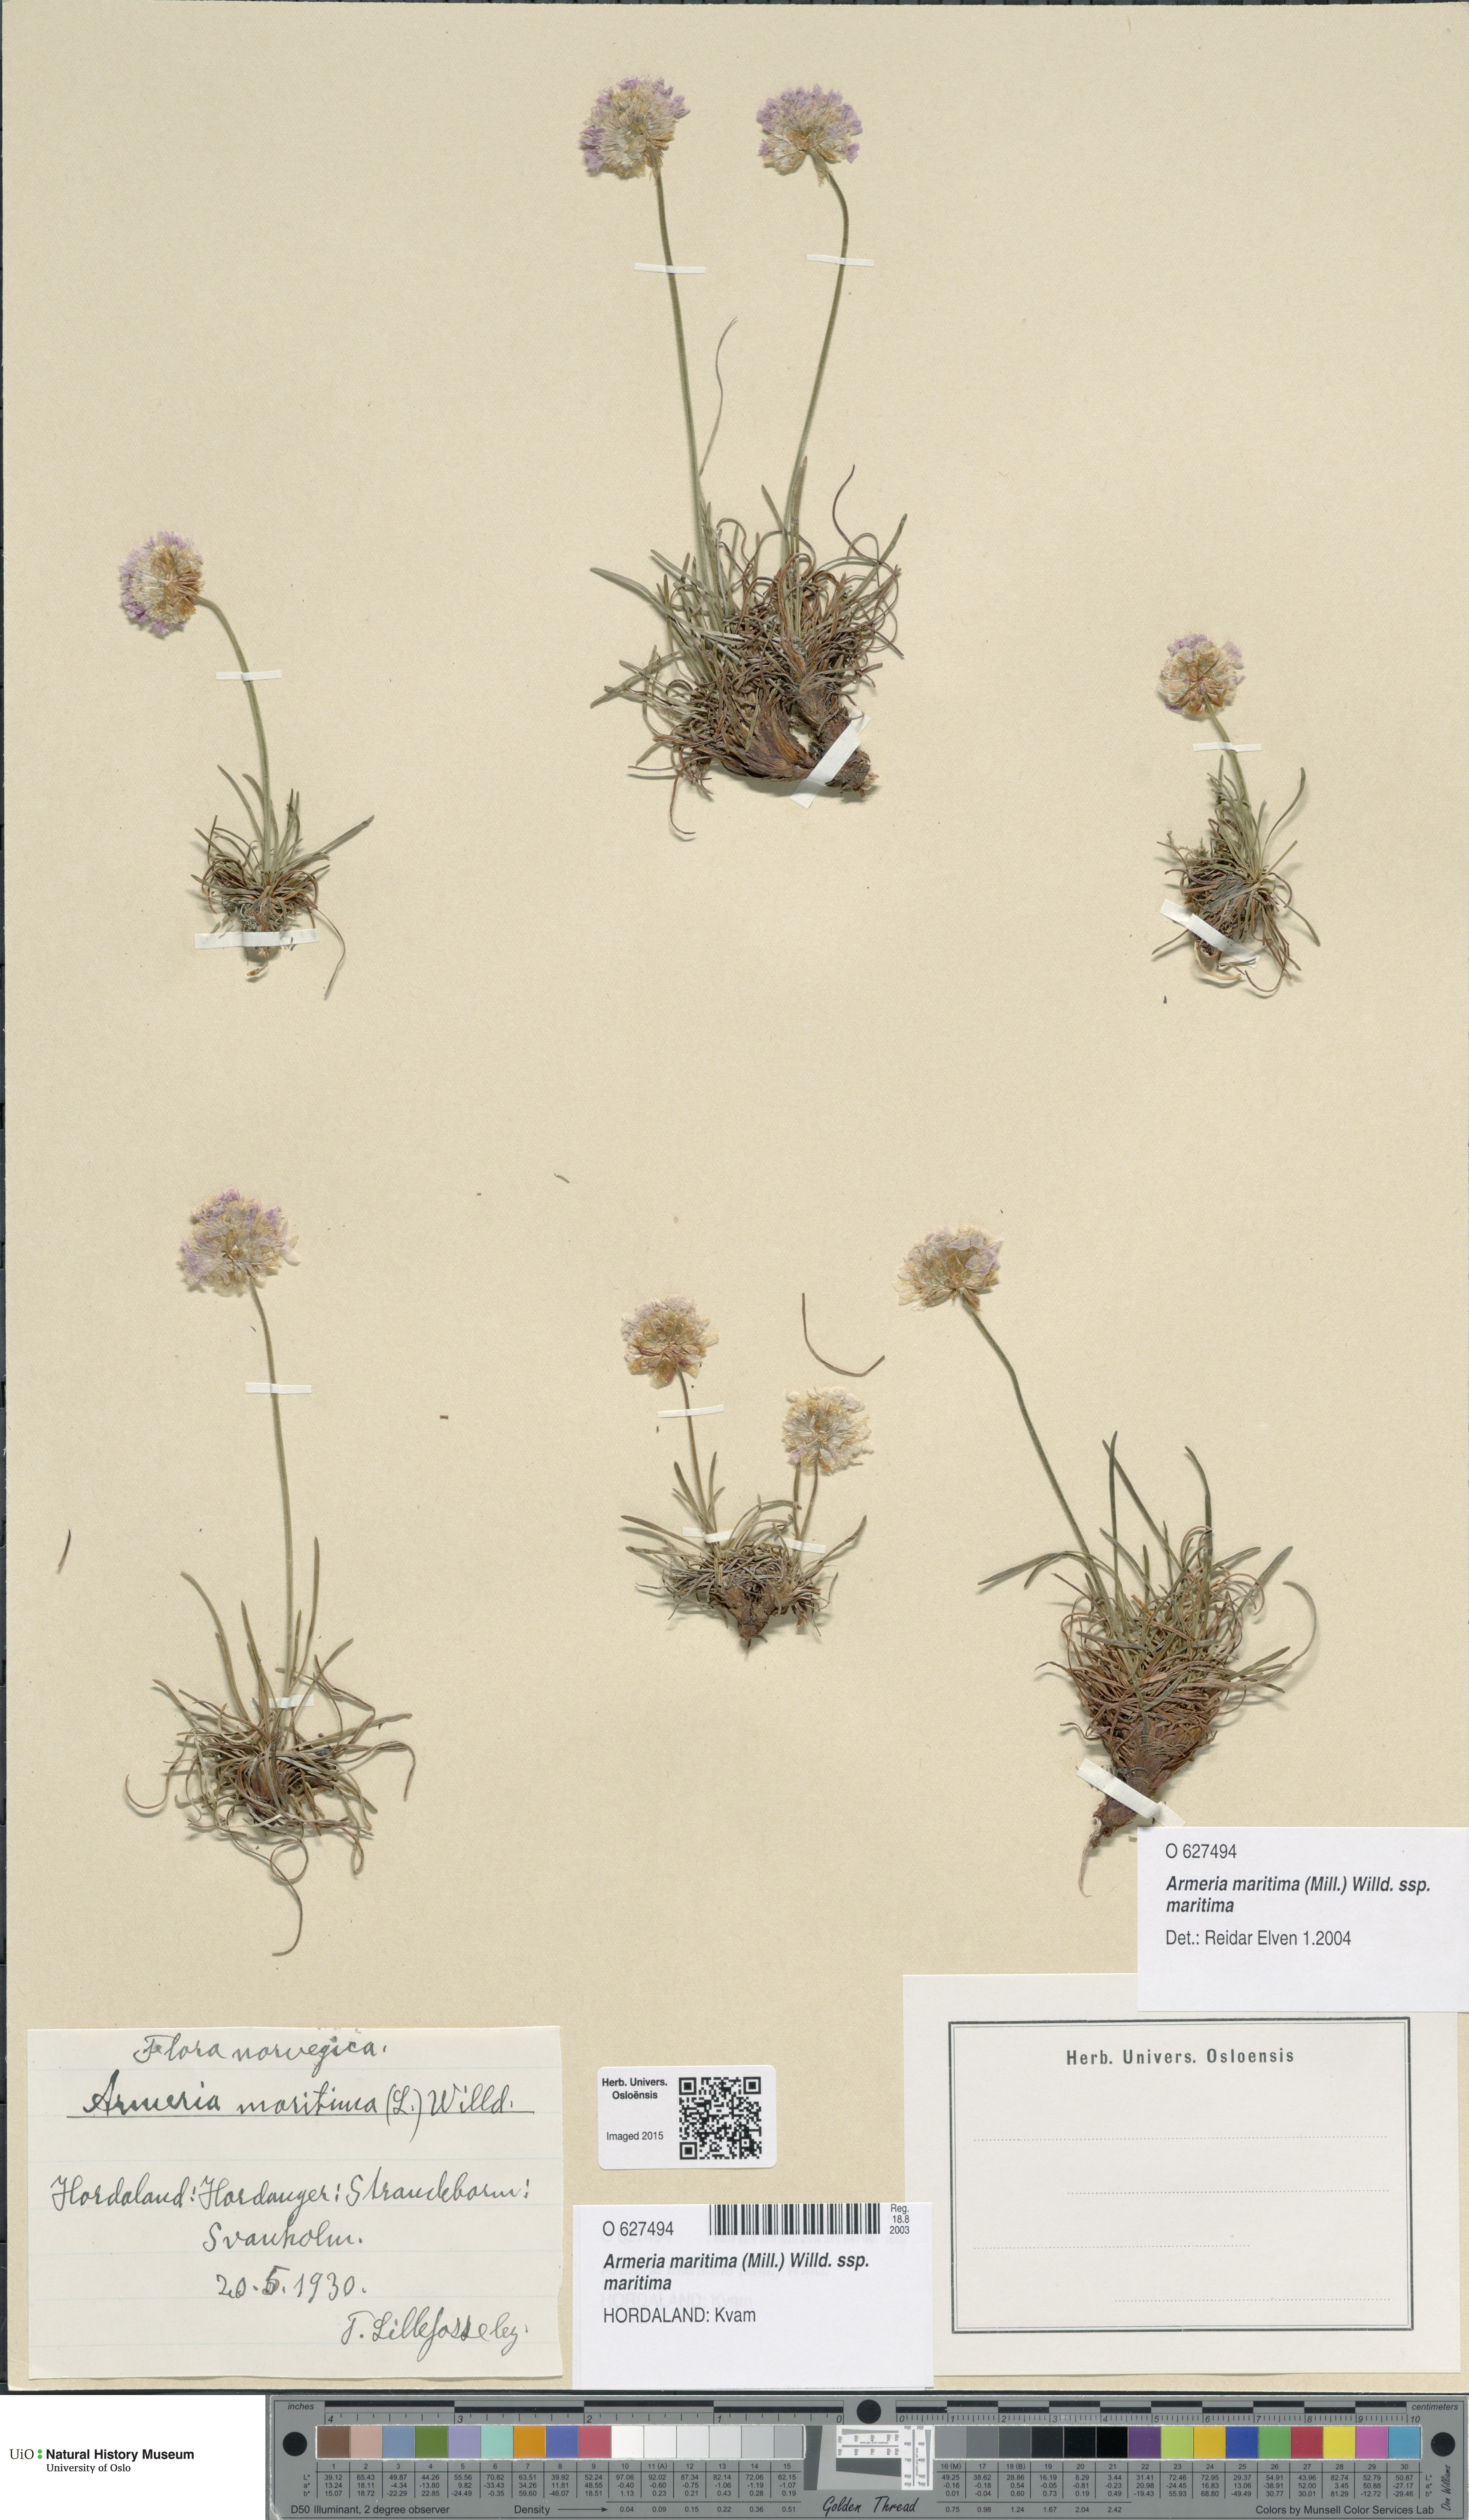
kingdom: Plantae
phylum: Tracheophyta
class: Magnoliopsida
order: Caryophyllales
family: Plumbaginaceae
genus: Armeria
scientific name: Armeria maritima
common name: Thrift
